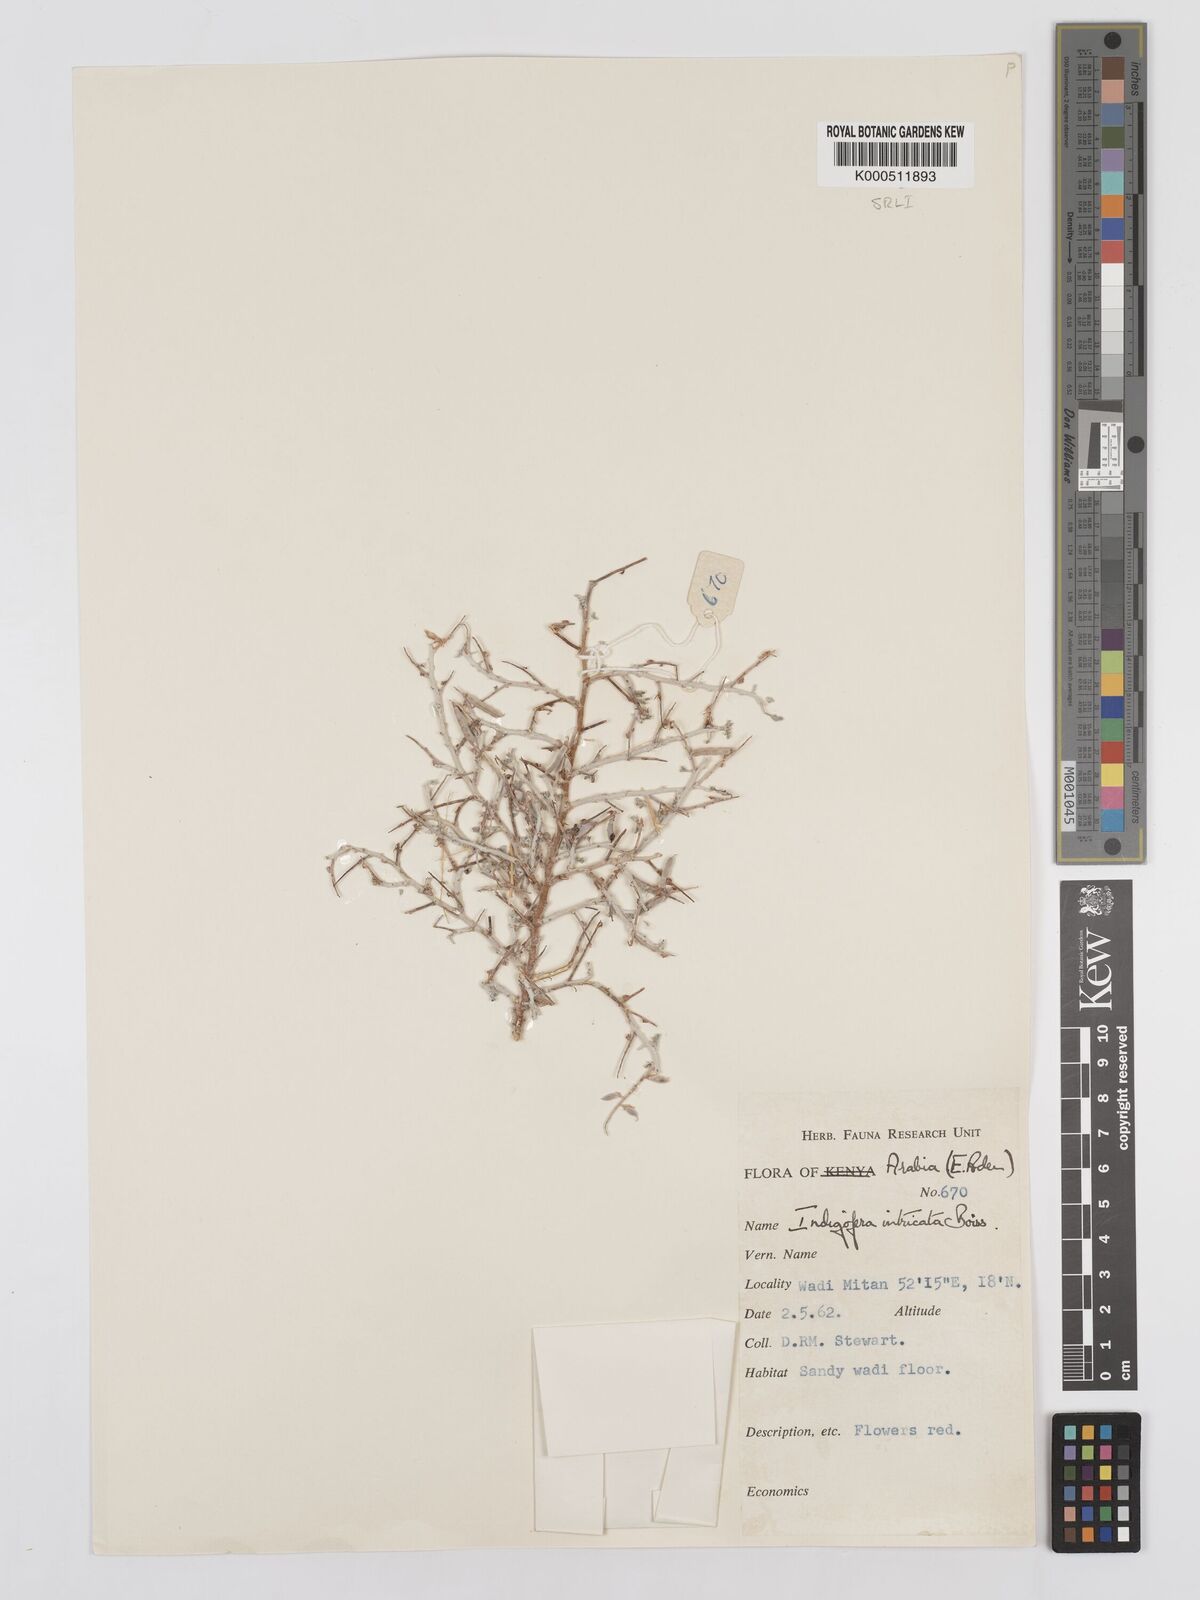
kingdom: Plantae
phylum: Tracheophyta
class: Magnoliopsida
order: Fabales
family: Fabaceae
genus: Indigofera
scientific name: Indigofera intricata
